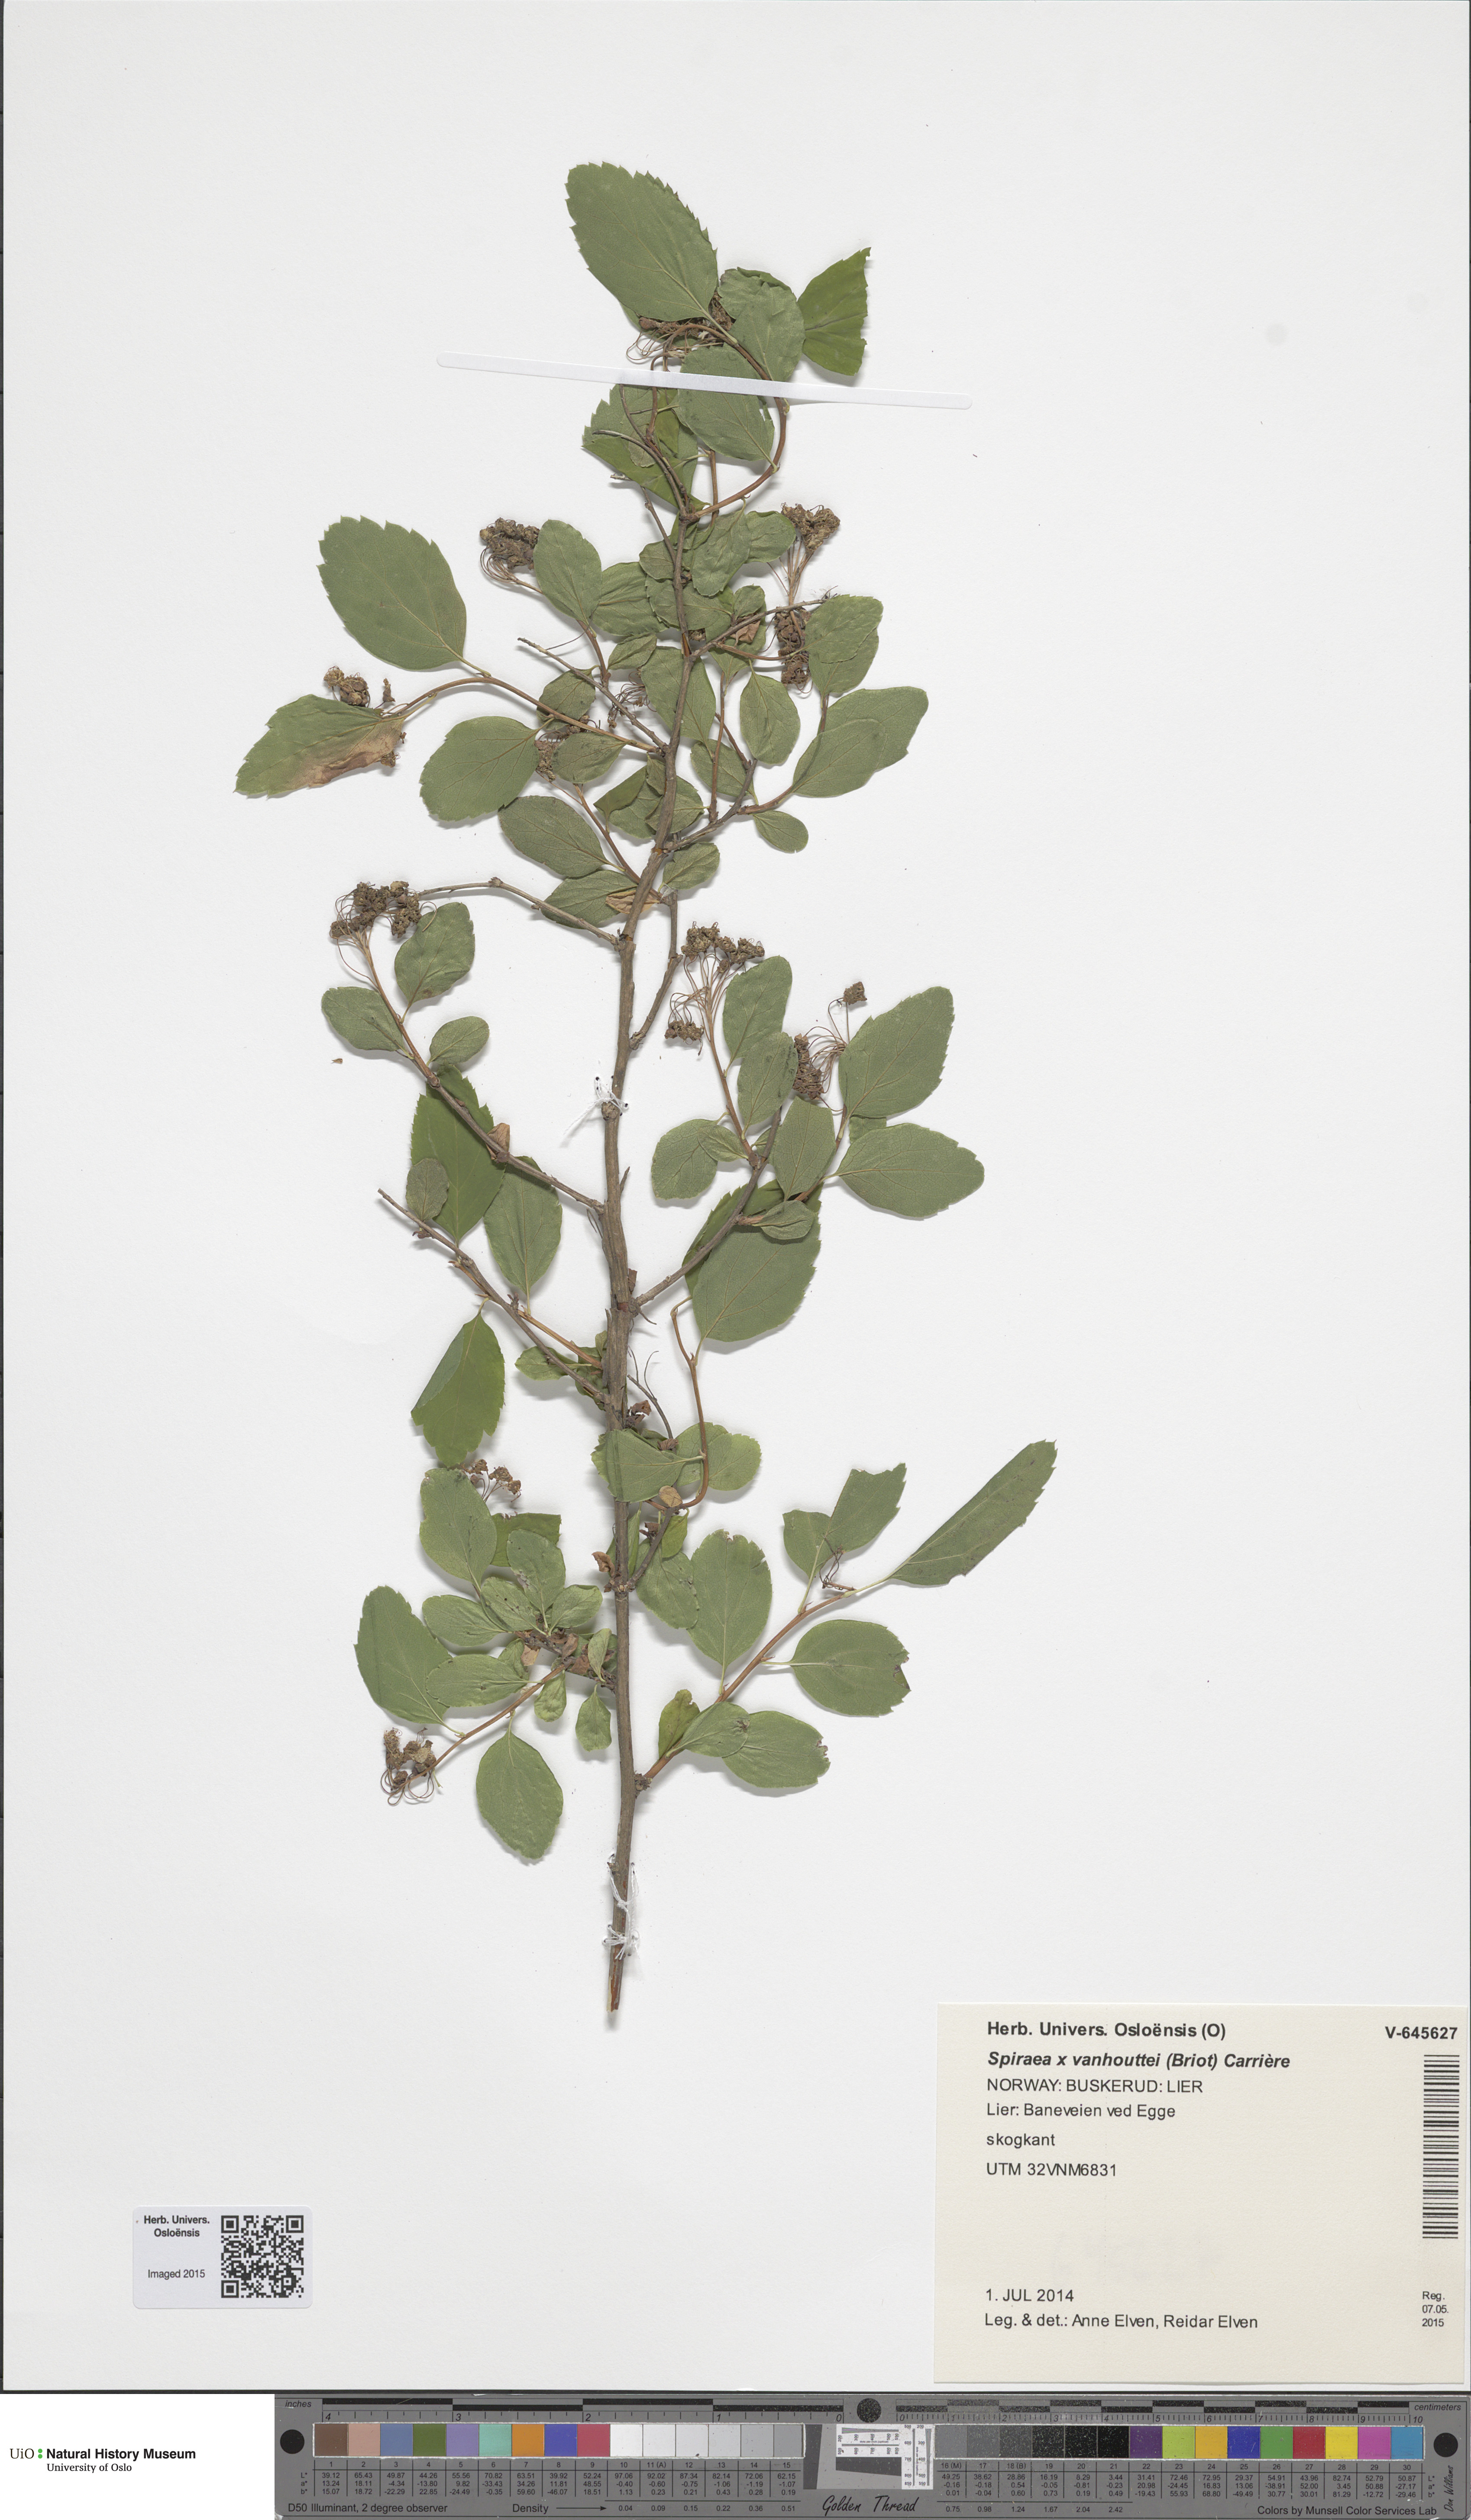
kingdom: Plantae
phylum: Tracheophyta
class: Magnoliopsida
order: Rosales
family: Rosaceae
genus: Spiraea
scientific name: Spiraea vanhouttei
